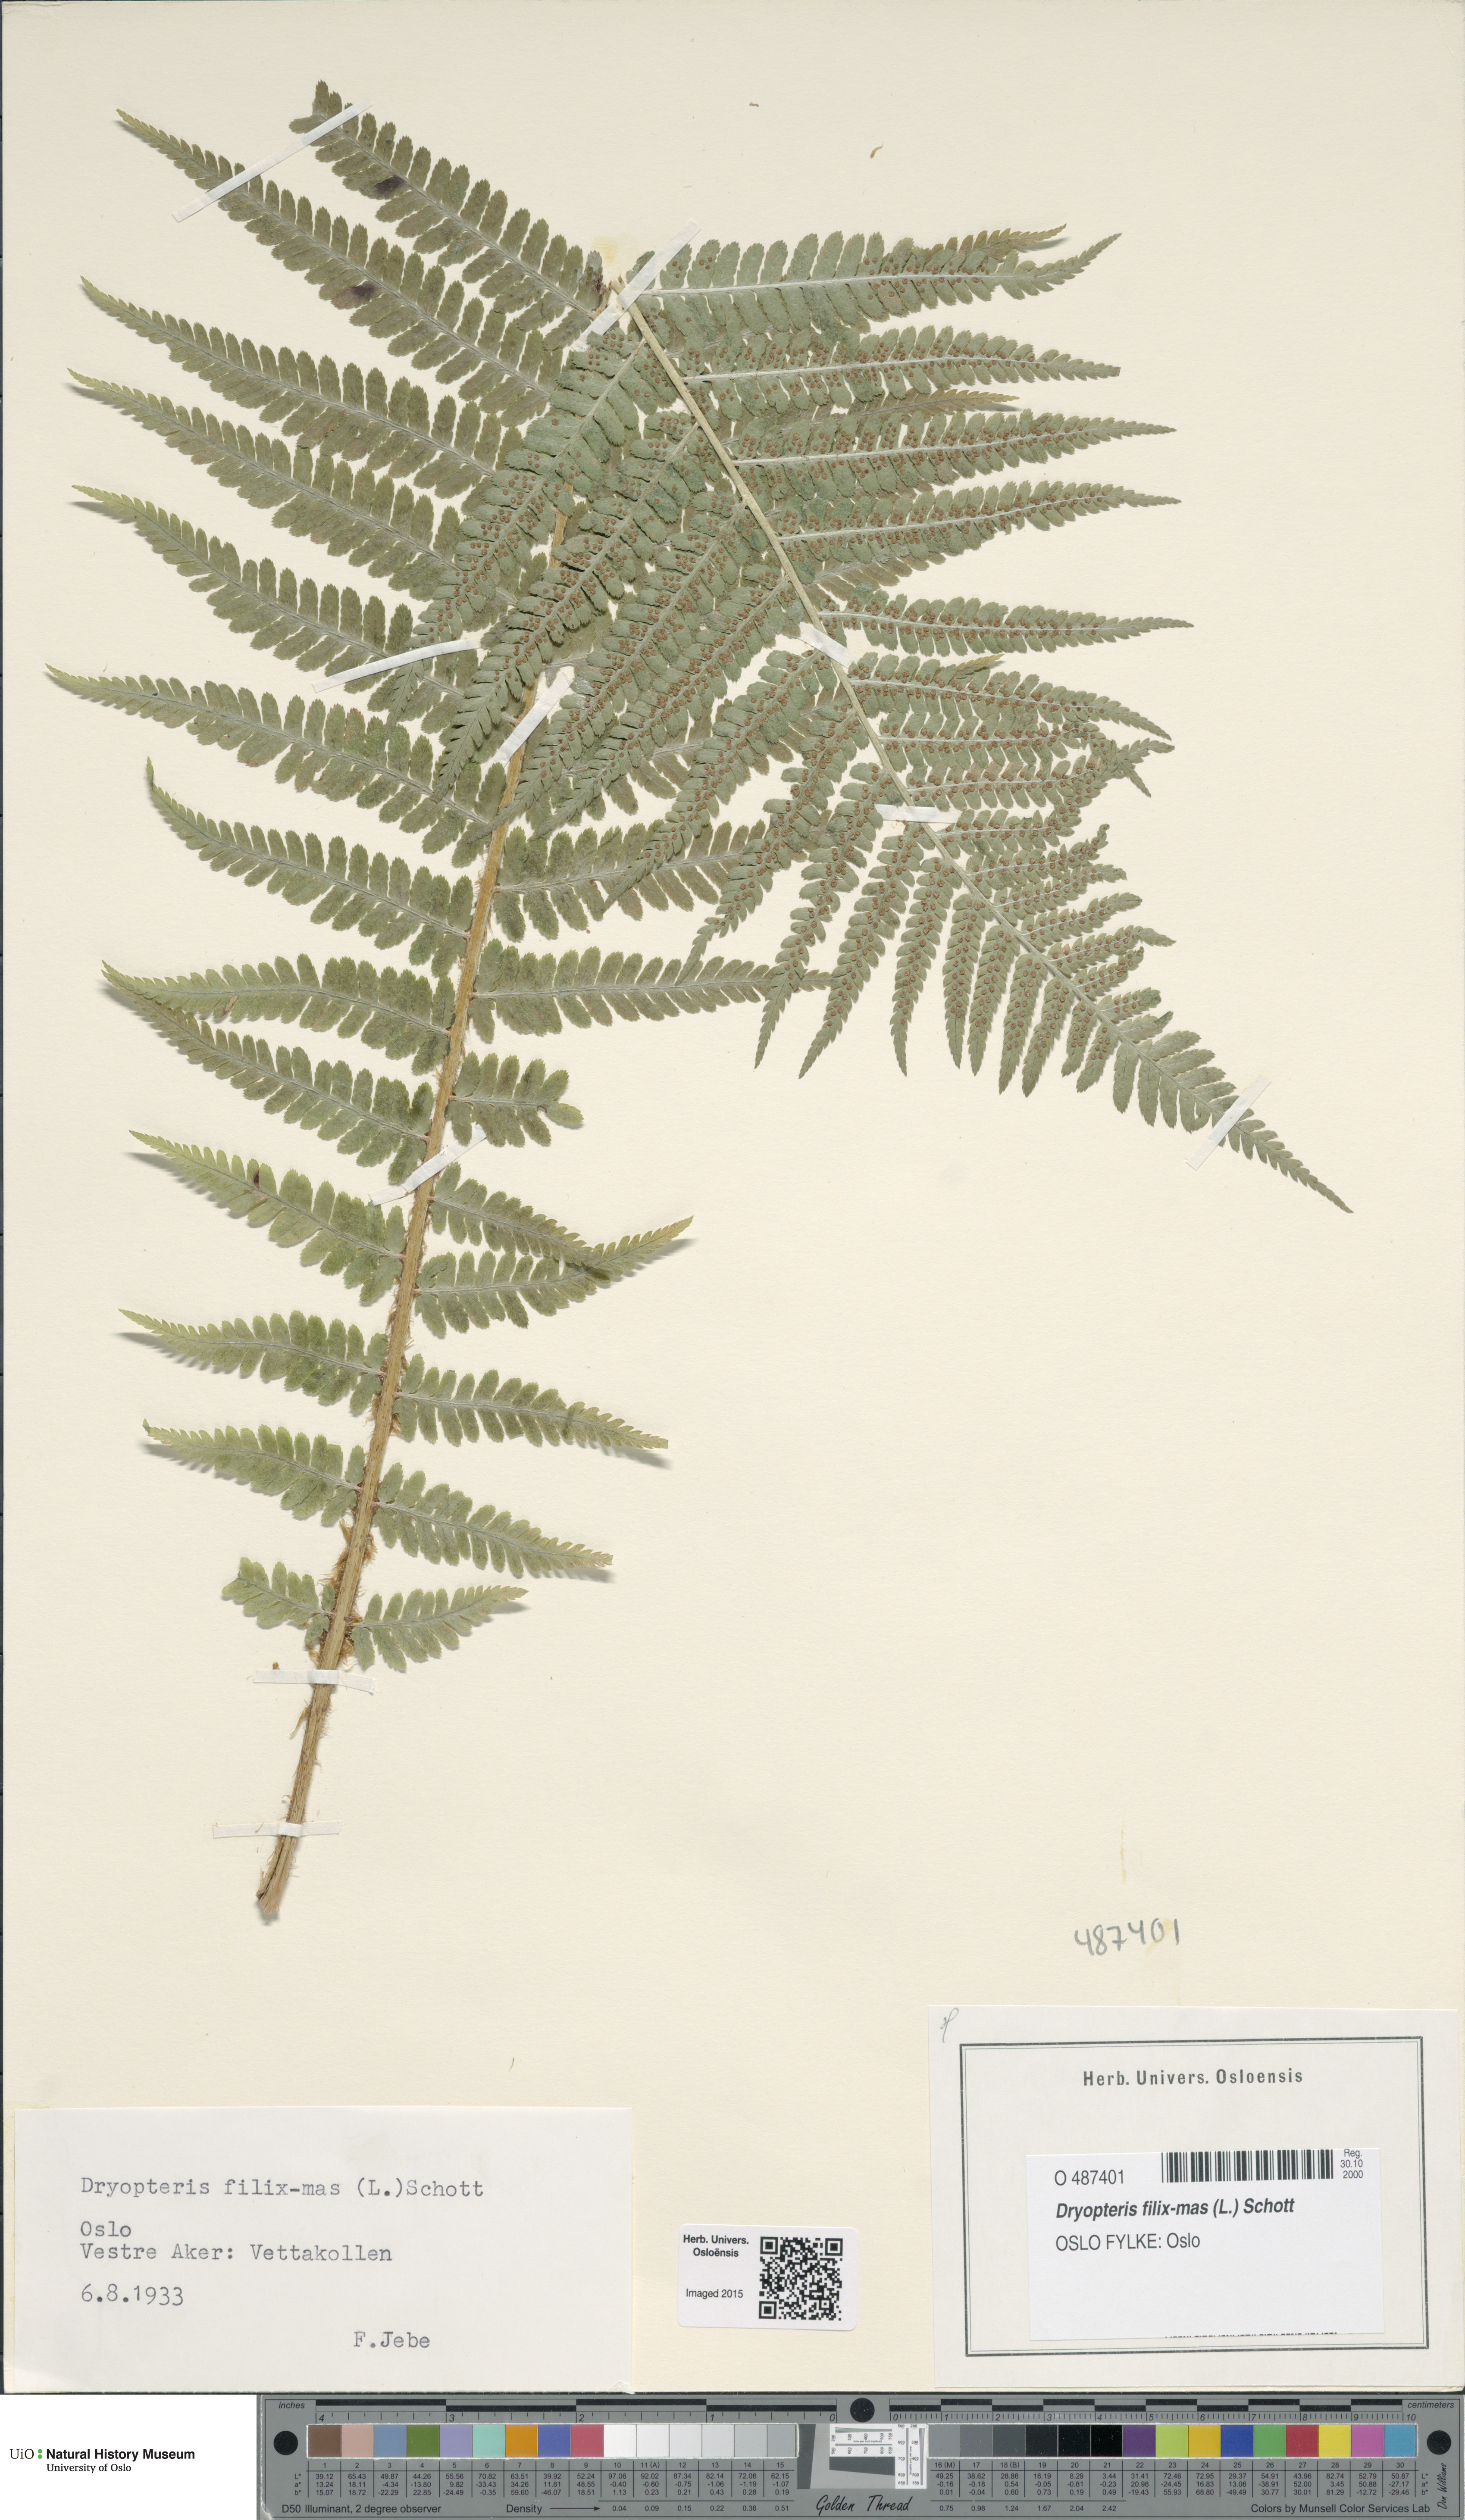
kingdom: Plantae
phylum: Tracheophyta
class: Polypodiopsida
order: Polypodiales
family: Dryopteridaceae
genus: Dryopteris
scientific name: Dryopteris filix-mas
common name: Male fern
